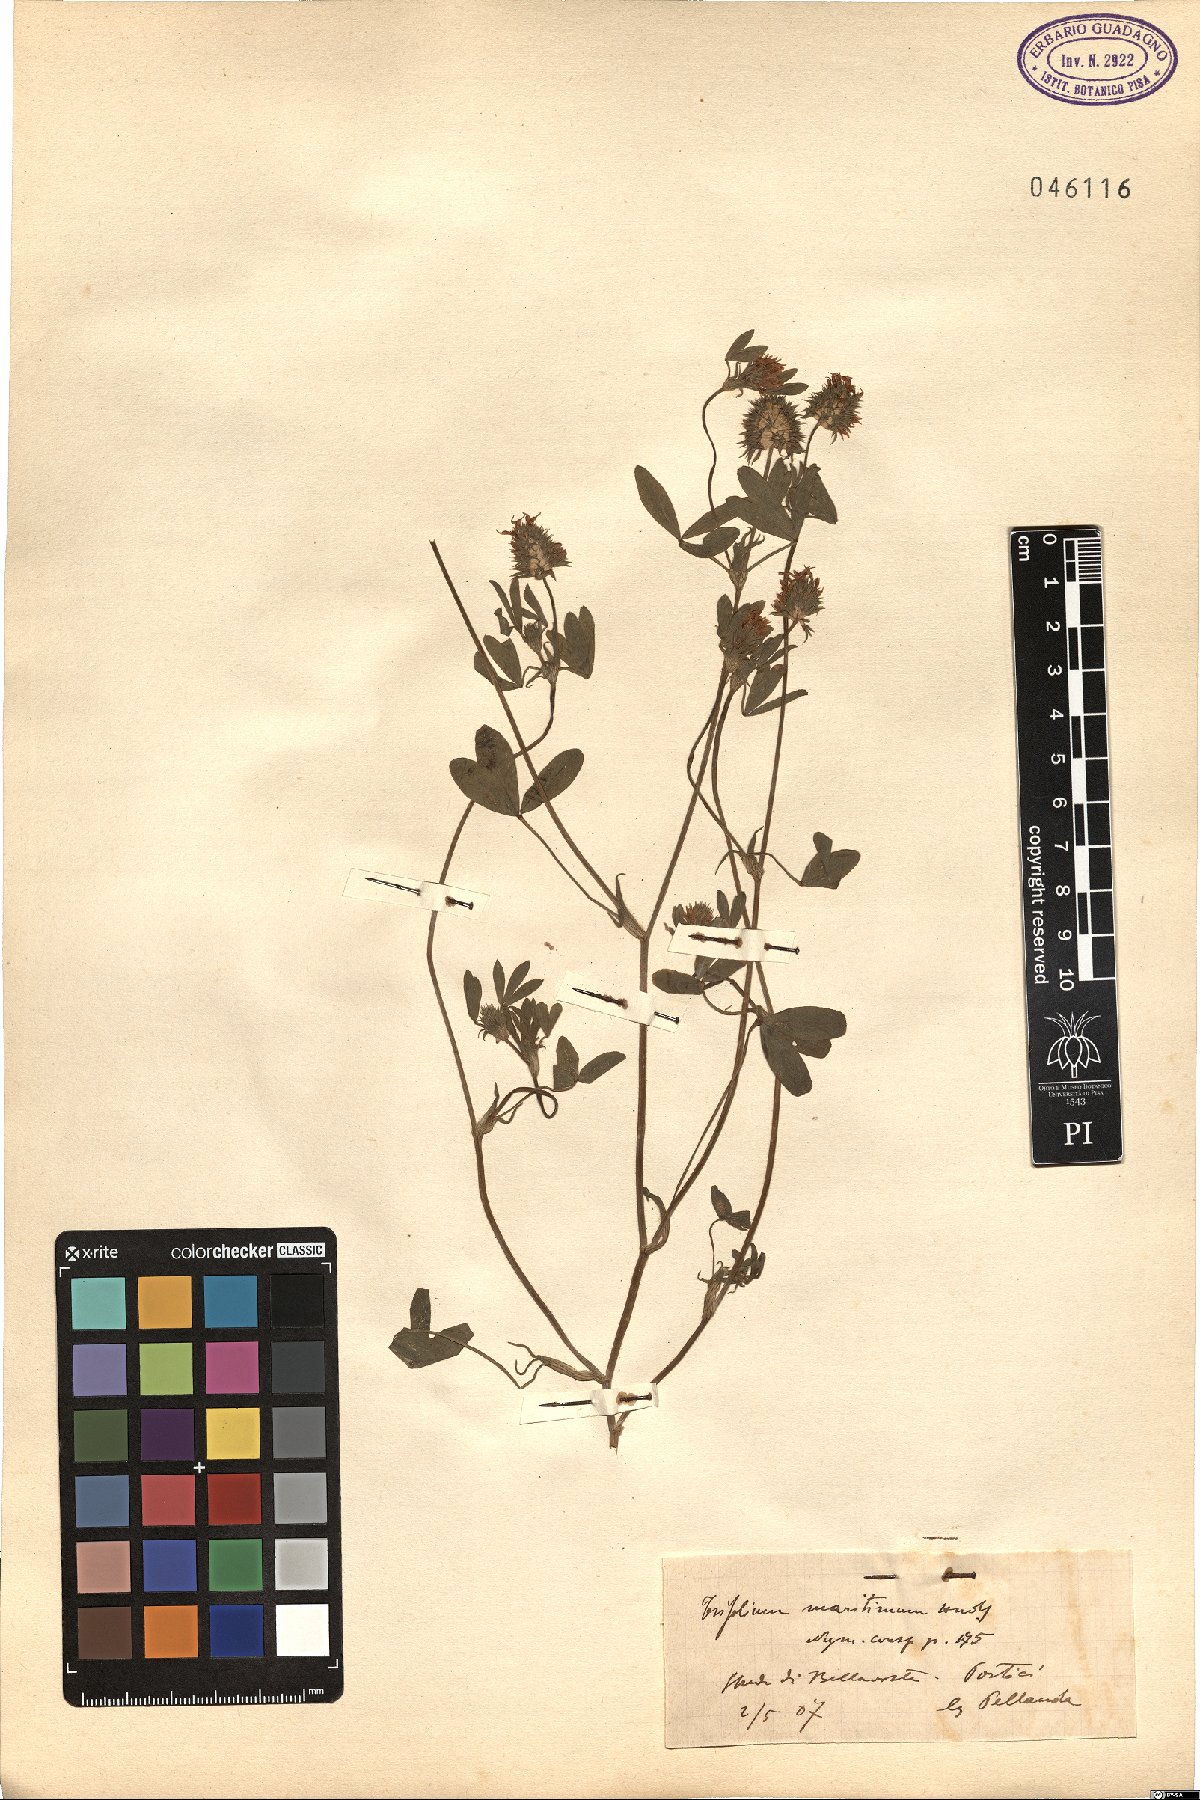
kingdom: Plantae
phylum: Tracheophyta
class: Magnoliopsida
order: Fabales
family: Fabaceae
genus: Trifolium
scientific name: Trifolium squamosum
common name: Sea clover
